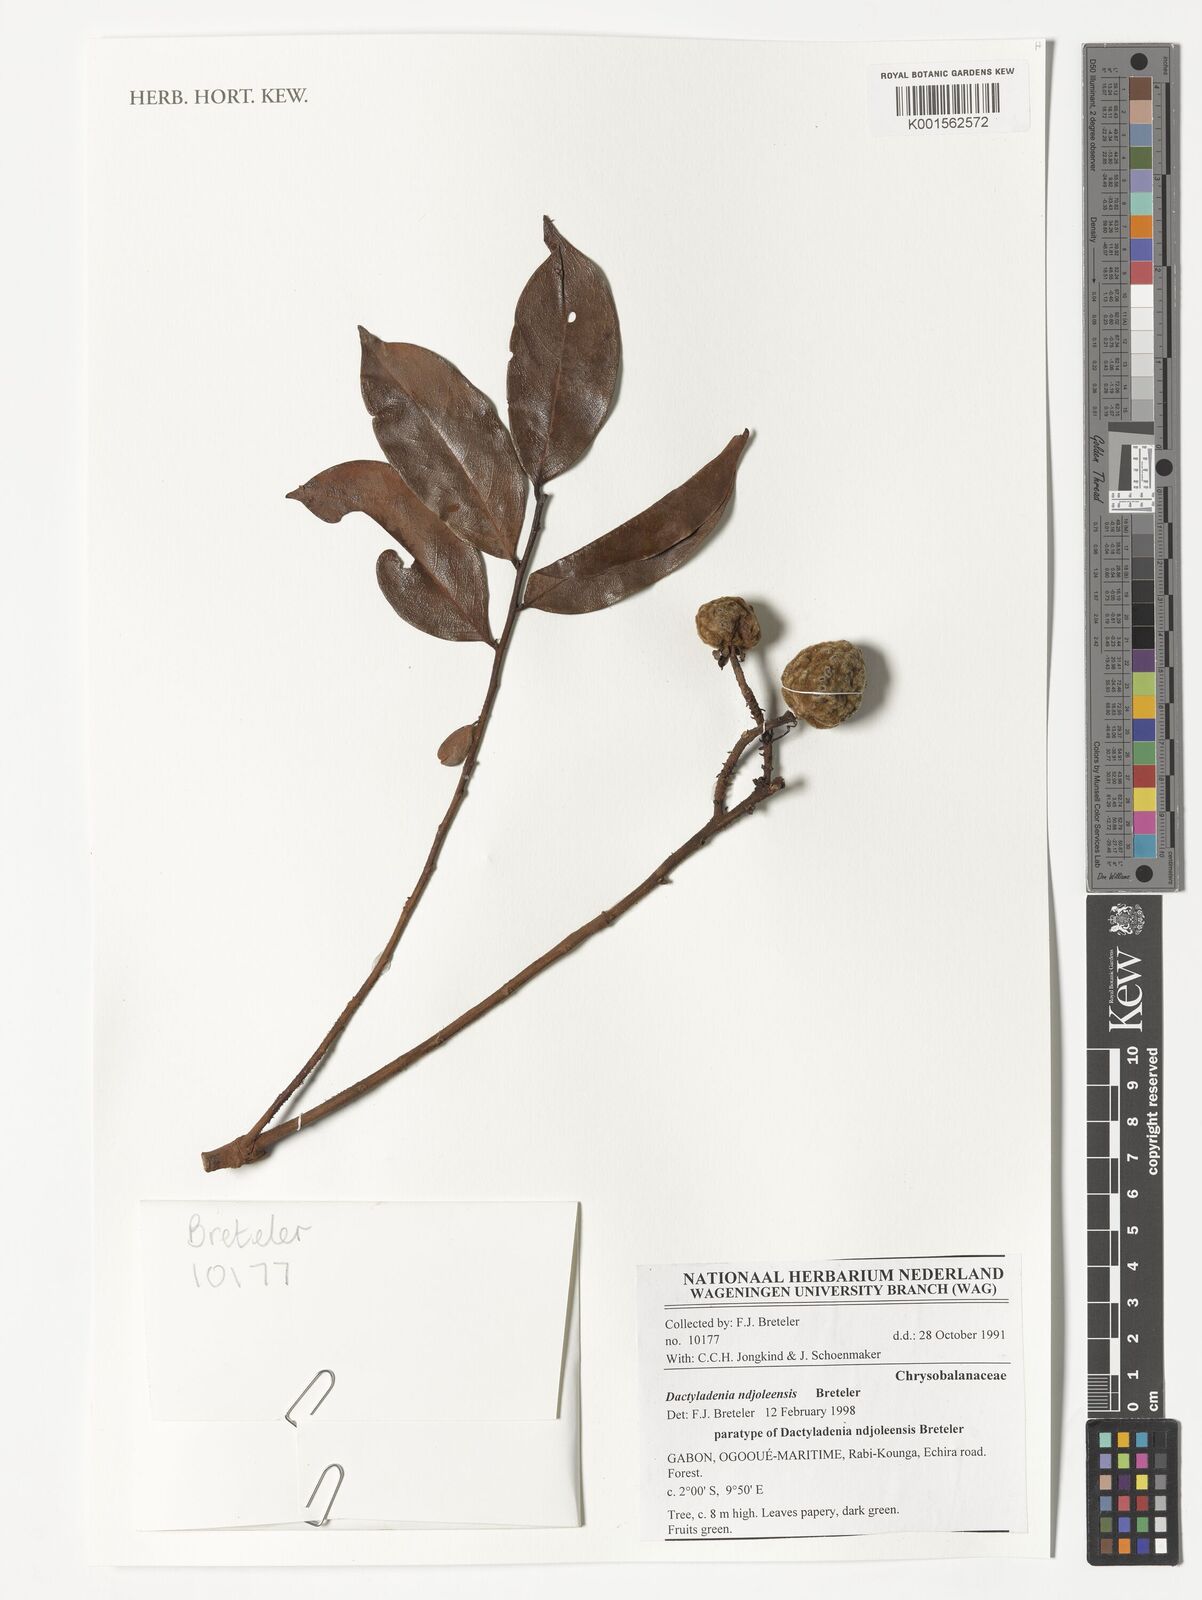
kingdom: Plantae
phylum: Tracheophyta
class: Magnoliopsida
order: Malpighiales
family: Chrysobalanaceae
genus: Dactyladenia
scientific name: Dactyladenia ndjoleensis
